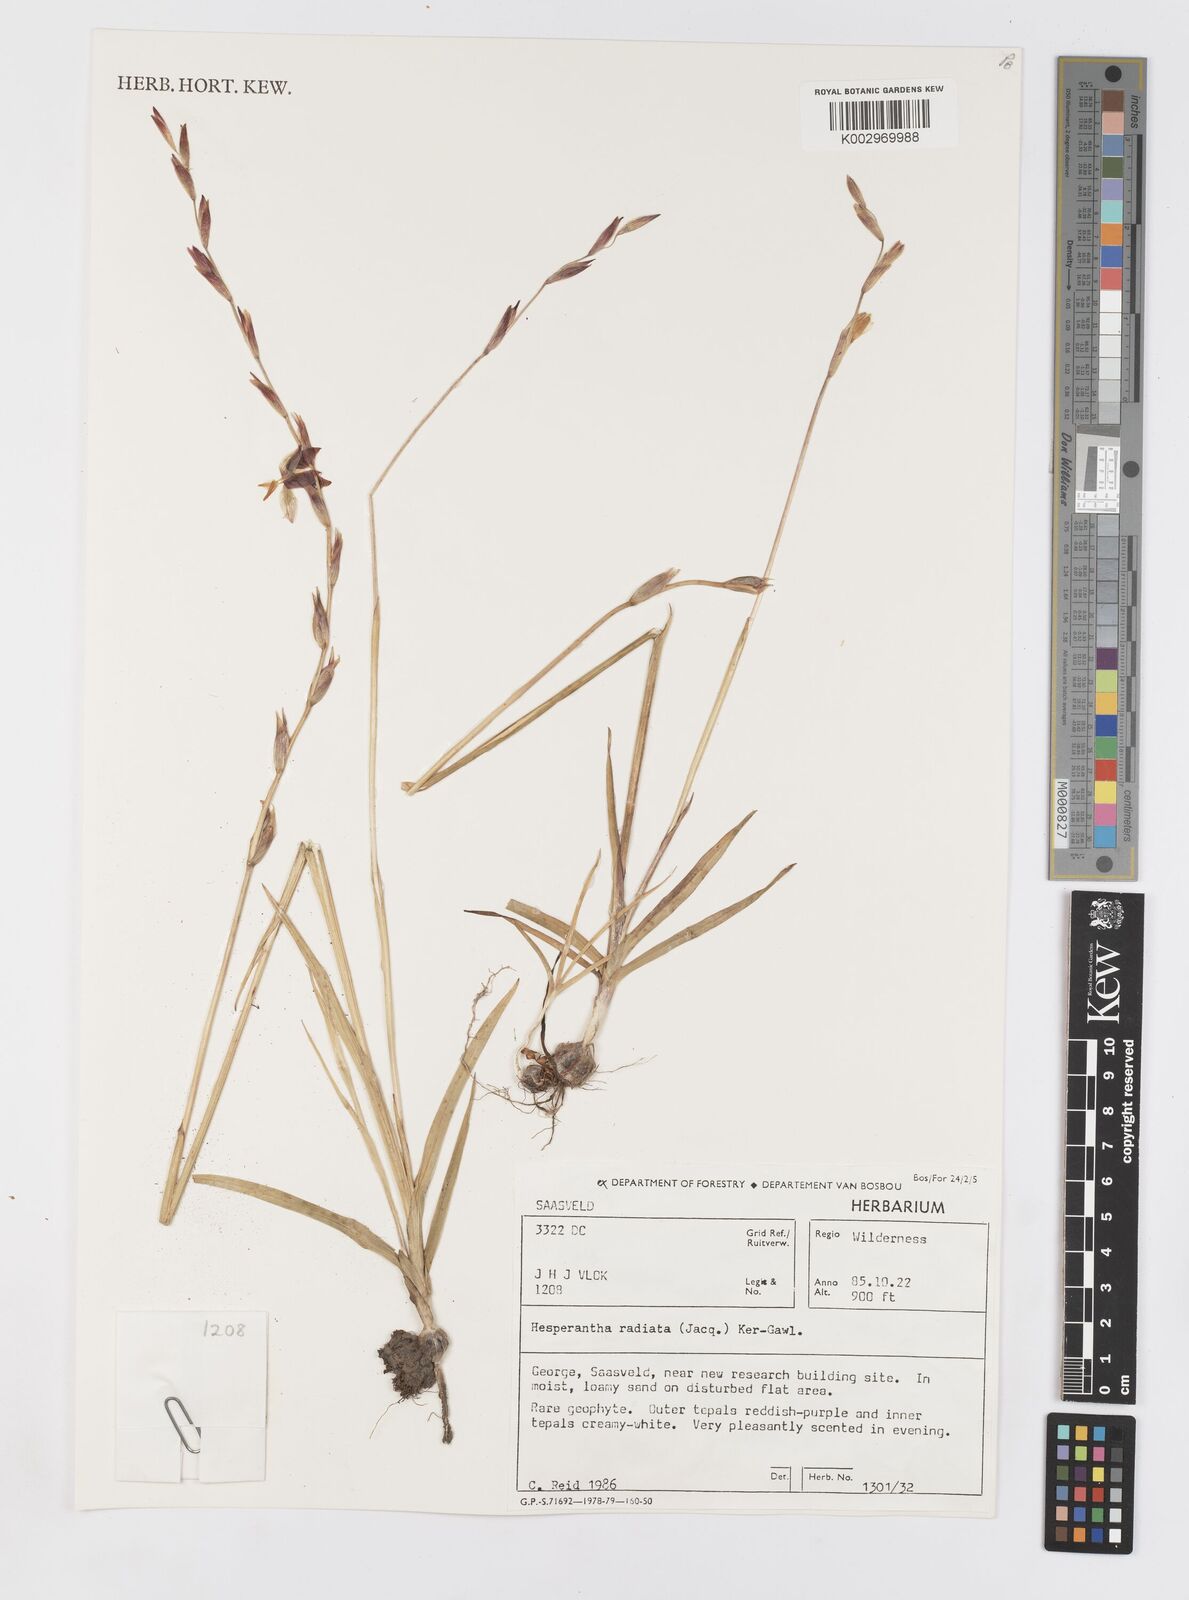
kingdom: Plantae
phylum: Tracheophyta
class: Liliopsida
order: Asparagales
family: Iridaceae
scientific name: Iridaceae
